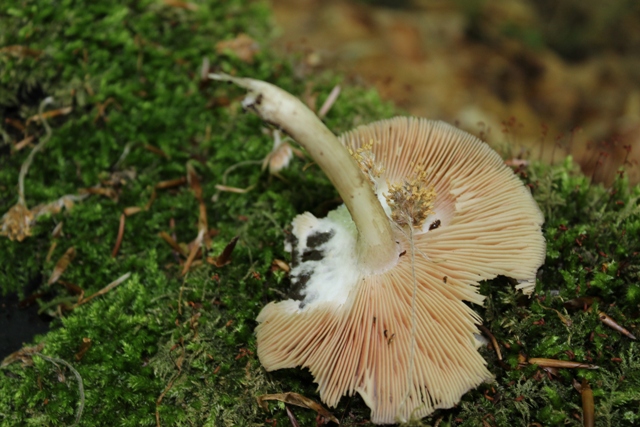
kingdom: Fungi
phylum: Basidiomycota
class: Agaricomycetes
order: Agaricales
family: Pluteaceae
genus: Pluteus
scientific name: Pluteus cervinus
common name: sodfarvet skærmhat
